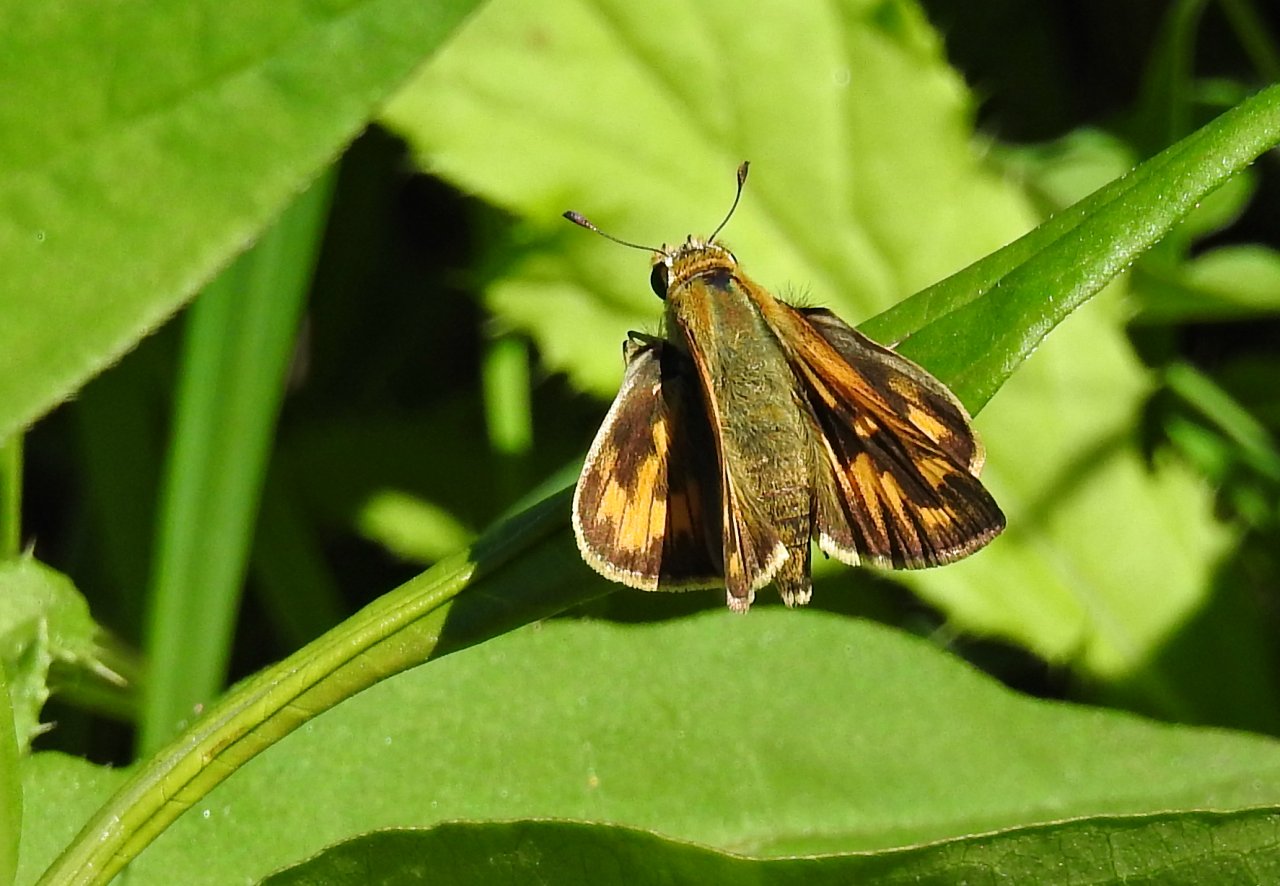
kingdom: Animalia
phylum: Arthropoda
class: Insecta
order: Lepidoptera
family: Hesperiidae
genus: Hylephila
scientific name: Hylephila phyleus
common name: Fiery Skipper
